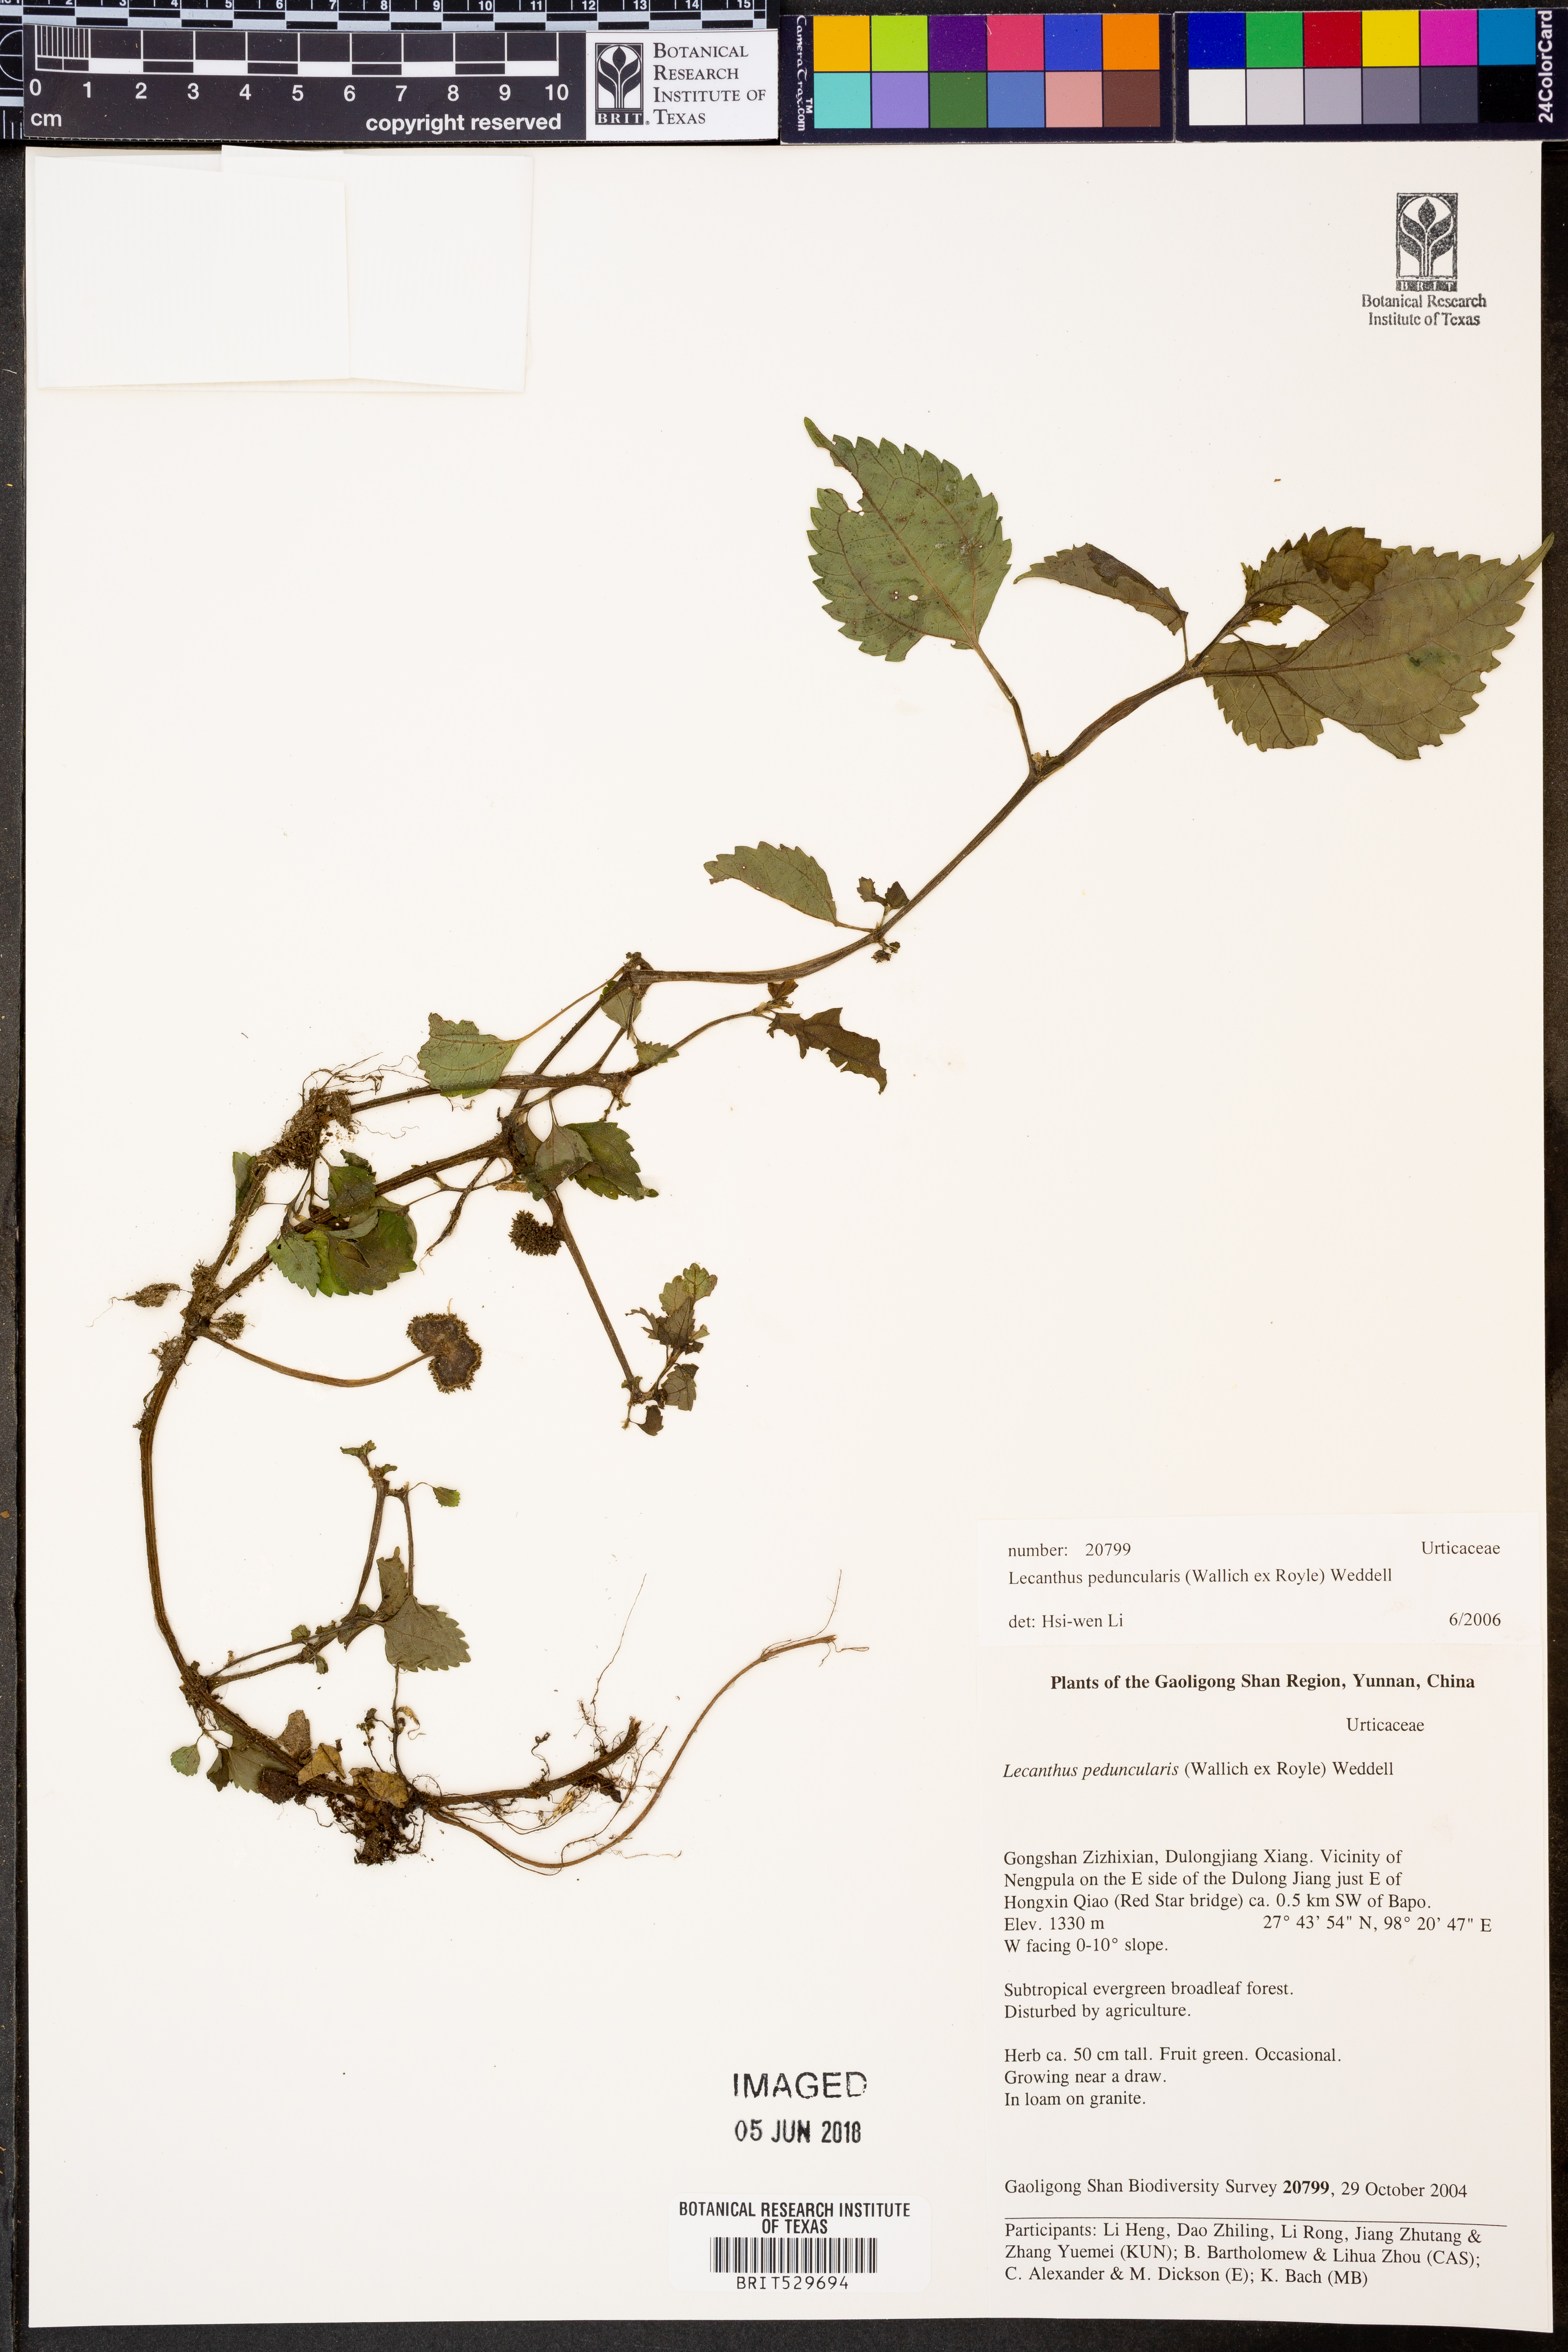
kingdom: Plantae
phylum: Tracheophyta
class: Magnoliopsida
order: Rosales
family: Urticaceae
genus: Lecanthus
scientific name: Lecanthus peduncularis
